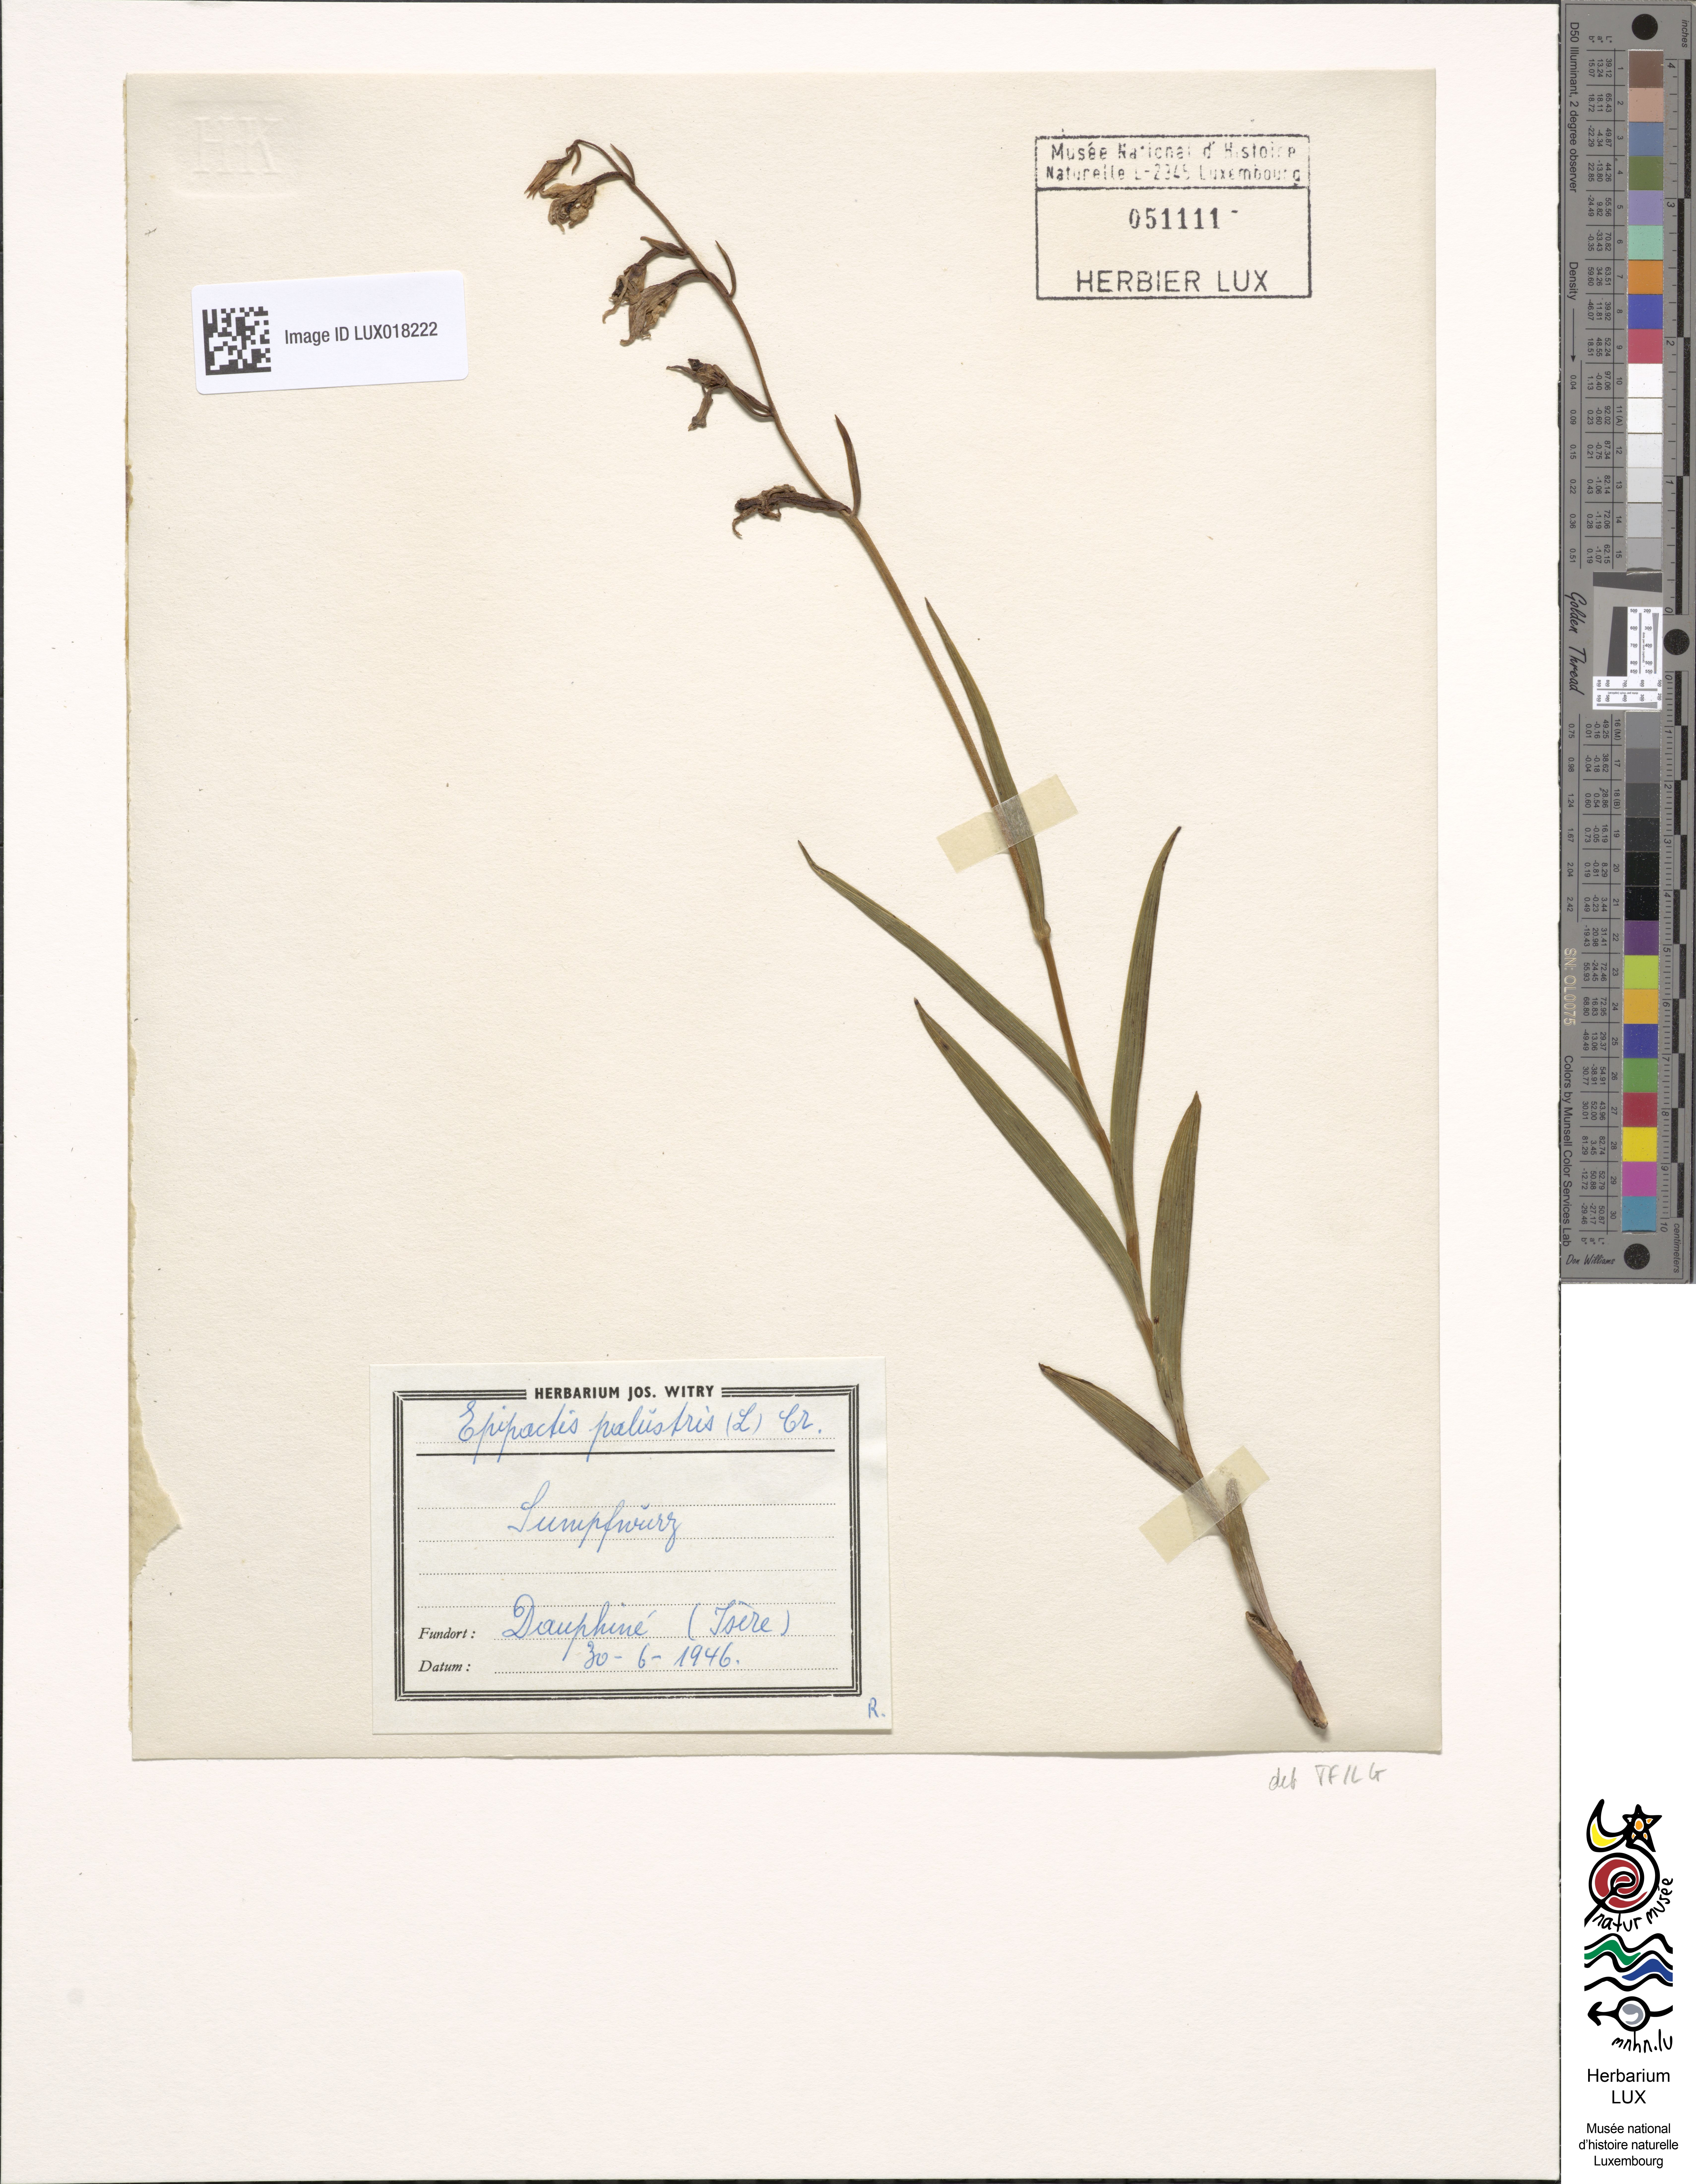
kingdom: Plantae
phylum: Tracheophyta
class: Liliopsida
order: Asparagales
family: Orchidaceae
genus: Epipactis
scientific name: Epipactis palustris
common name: Marsh helleborine
